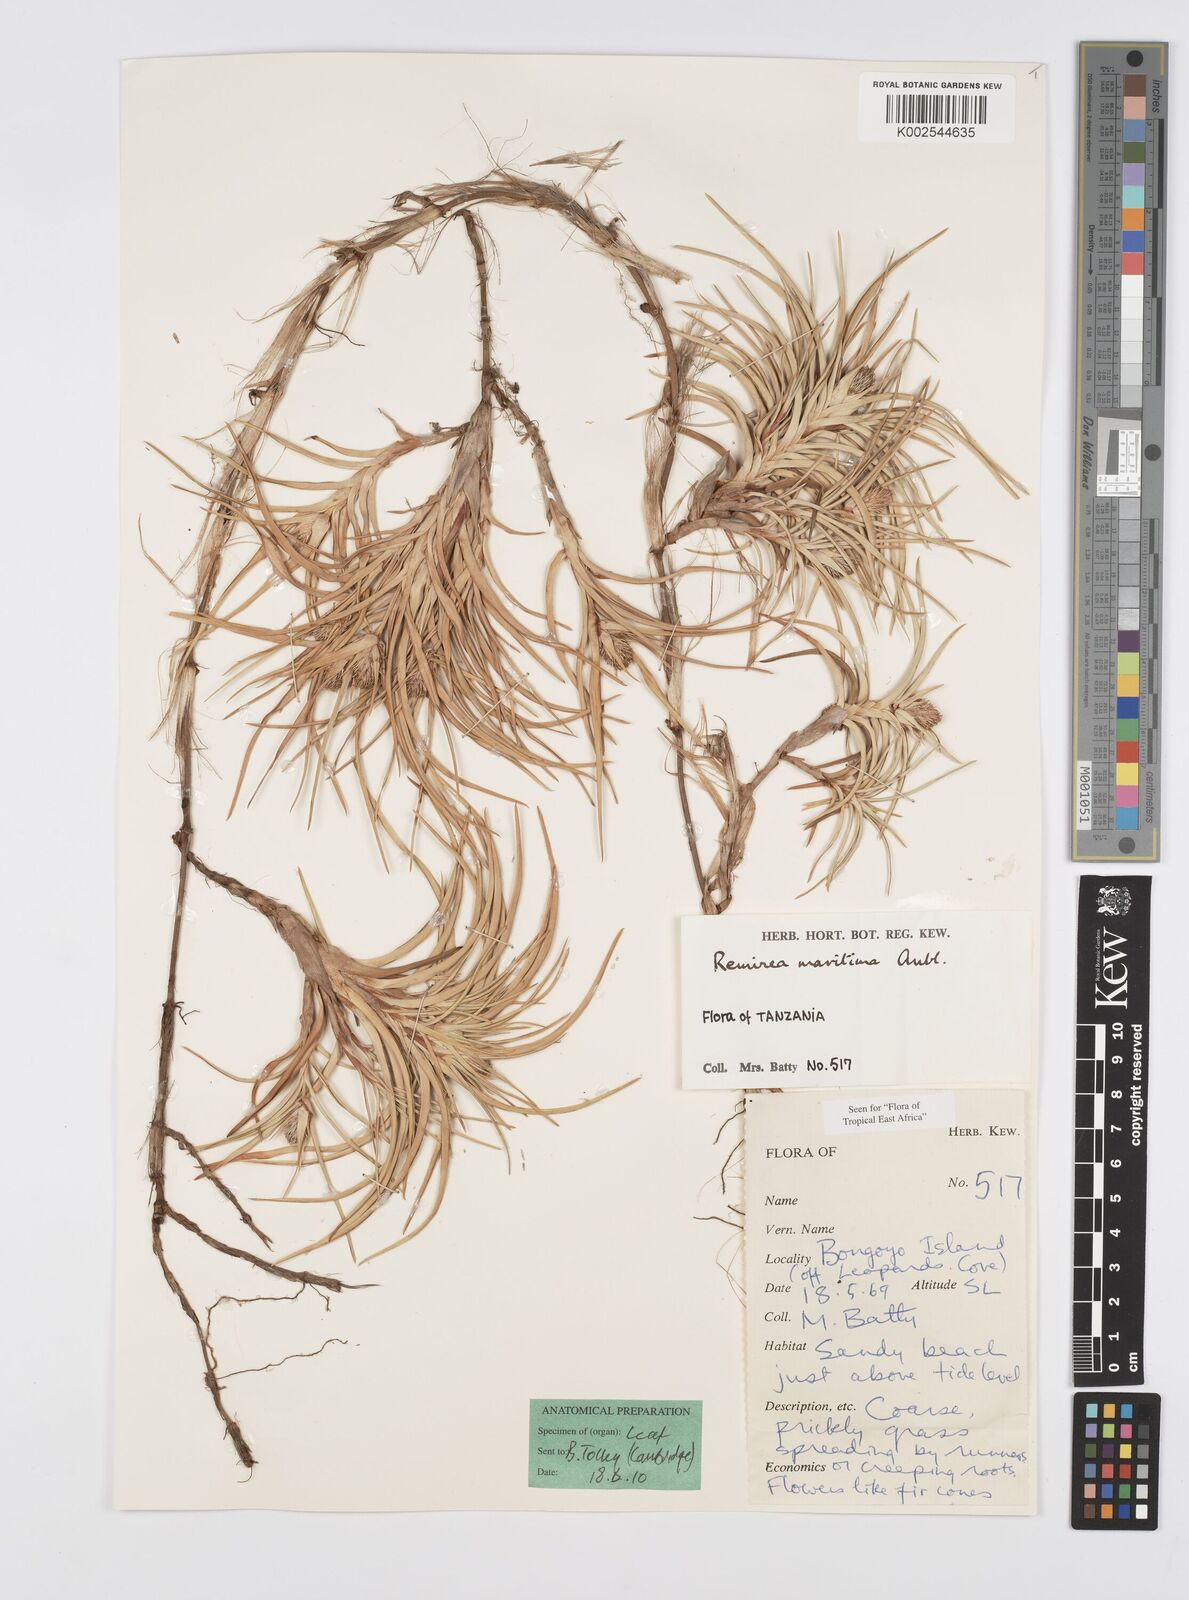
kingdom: Plantae
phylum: Tracheophyta
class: Liliopsida
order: Poales
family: Cyperaceae
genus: Cyperus
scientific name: Cyperus
